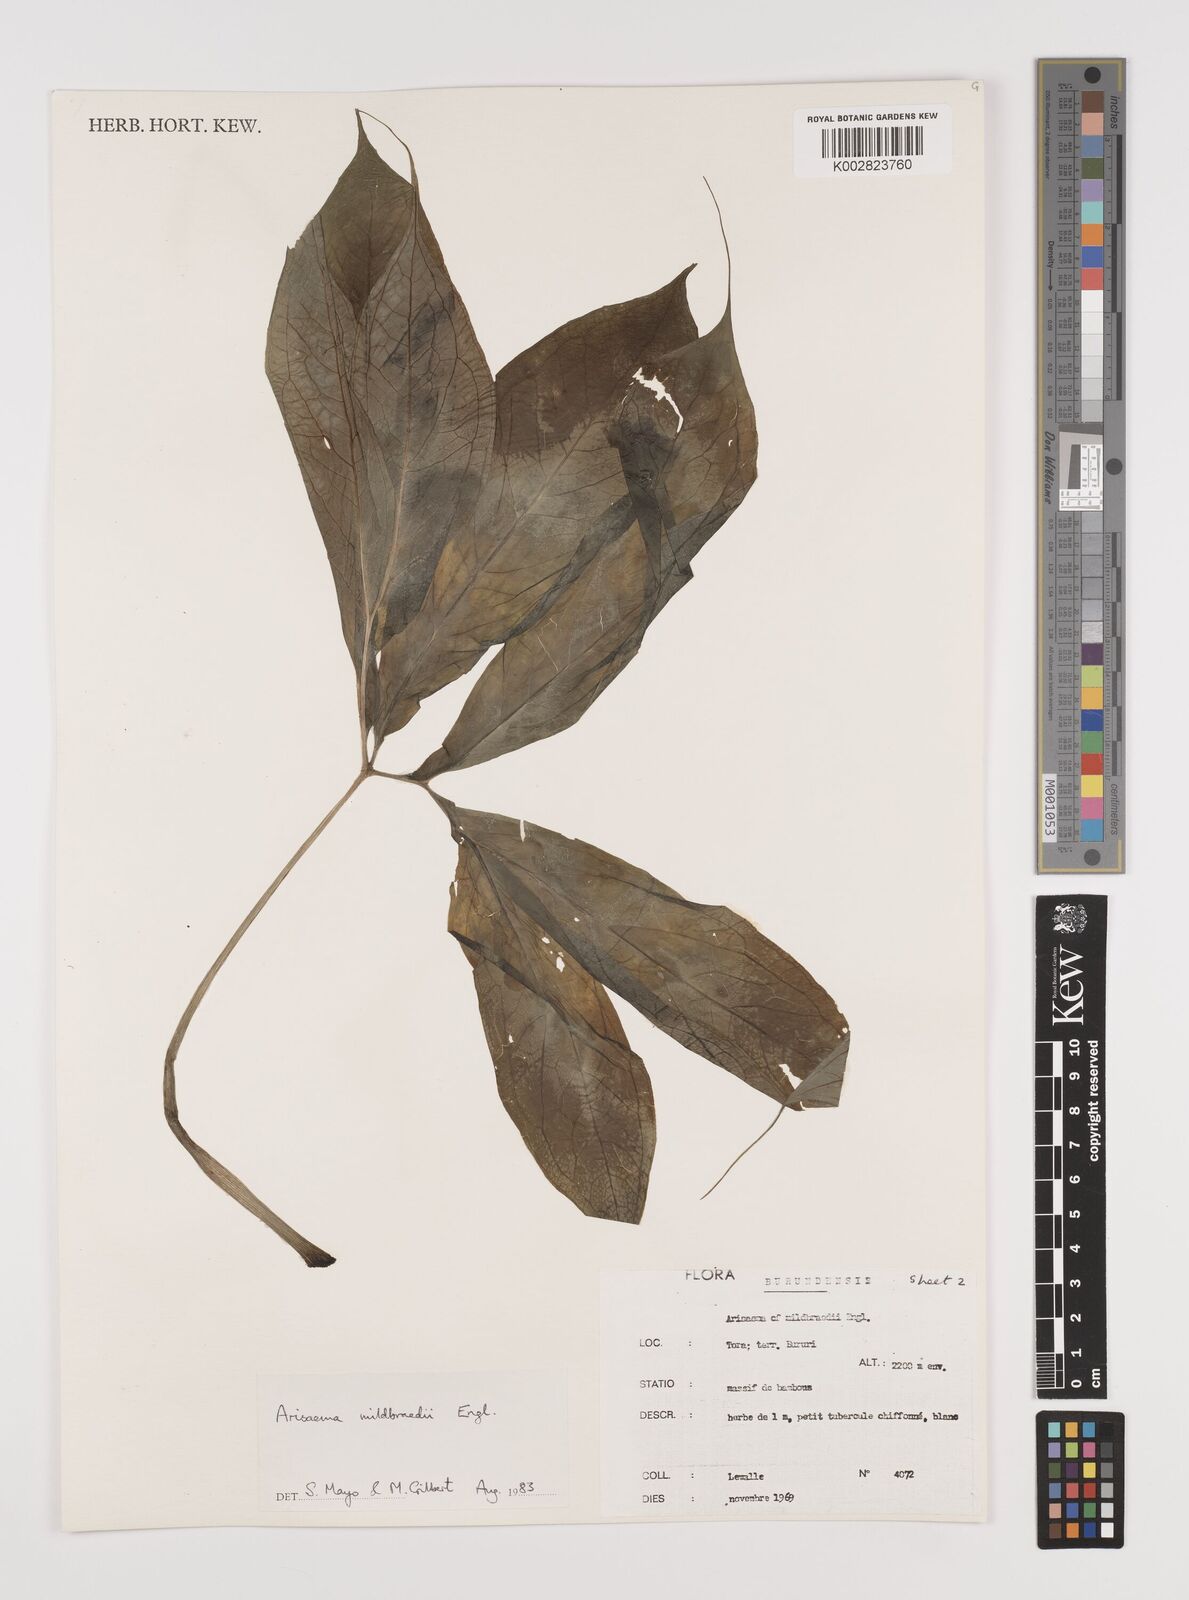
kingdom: Plantae
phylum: Tracheophyta
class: Liliopsida
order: Alismatales
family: Araceae
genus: Arisaema
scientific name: Arisaema mildbraedii
